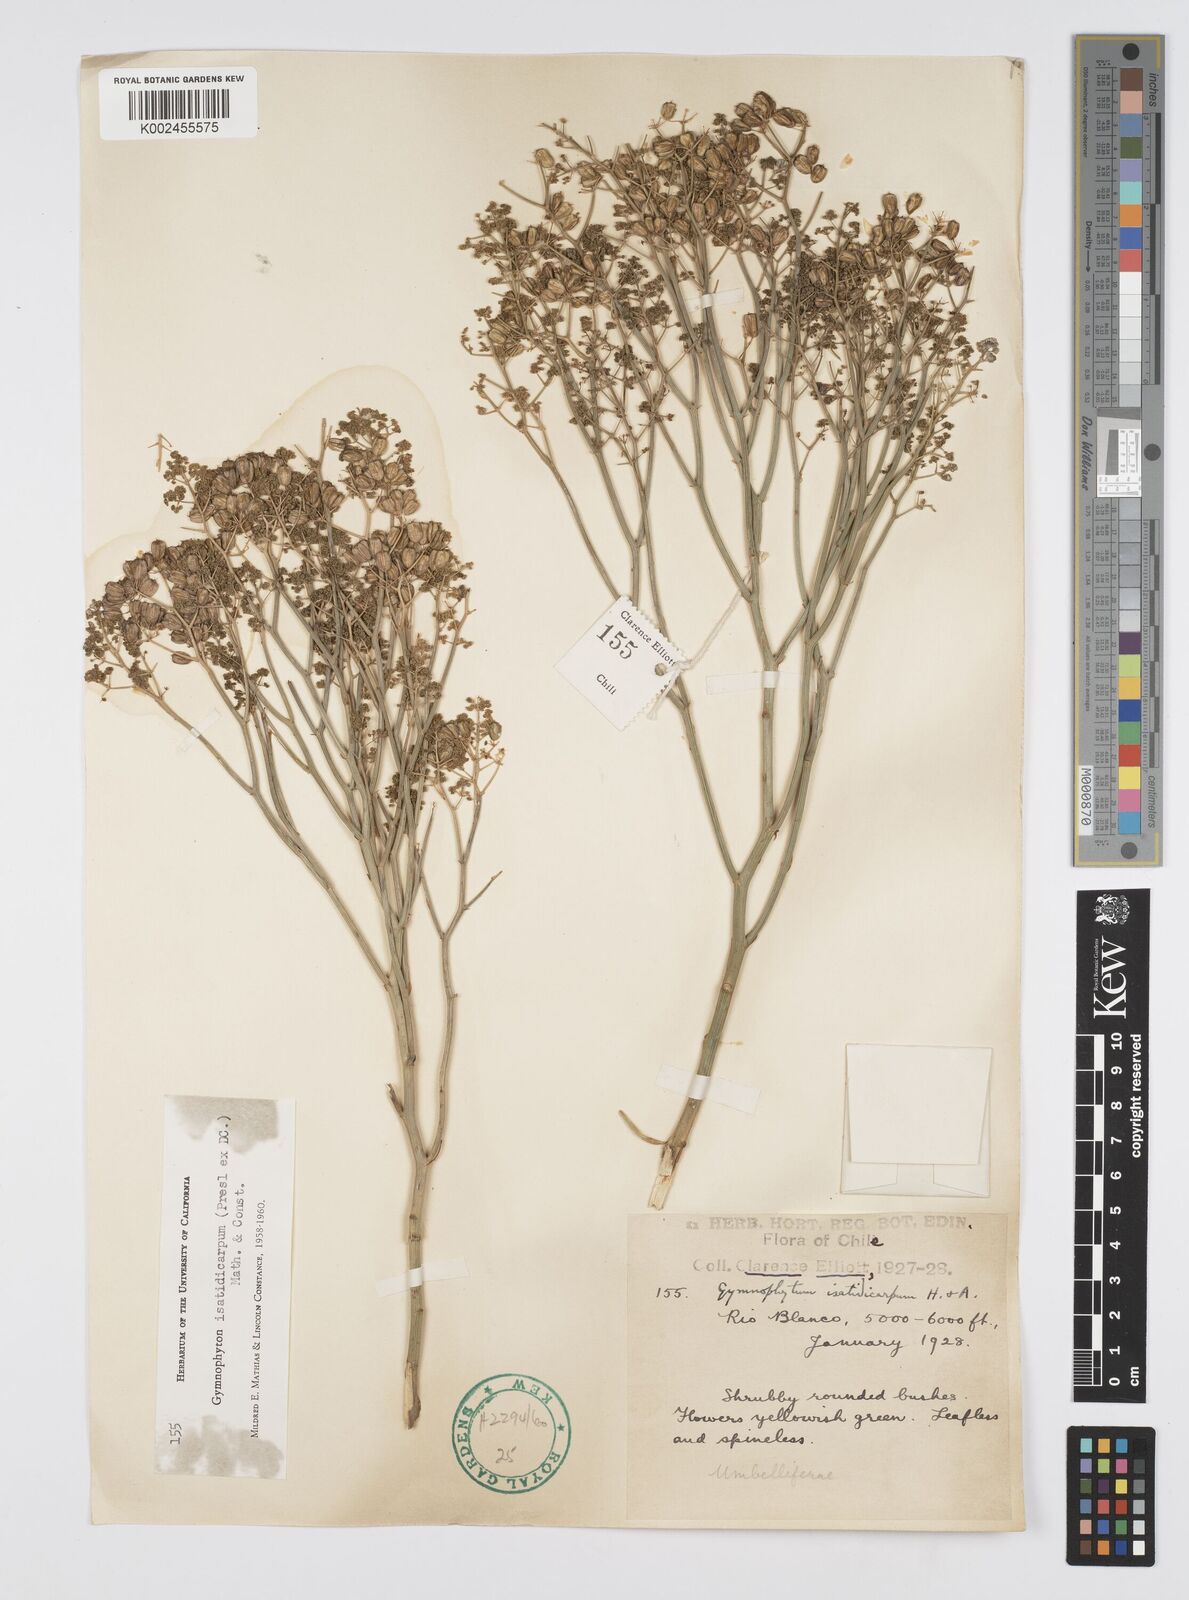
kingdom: Plantae
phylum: Tracheophyta
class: Magnoliopsida
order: Apiales
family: Apiaceae
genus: Gymnophyton
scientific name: Gymnophyton isatidicarpum
